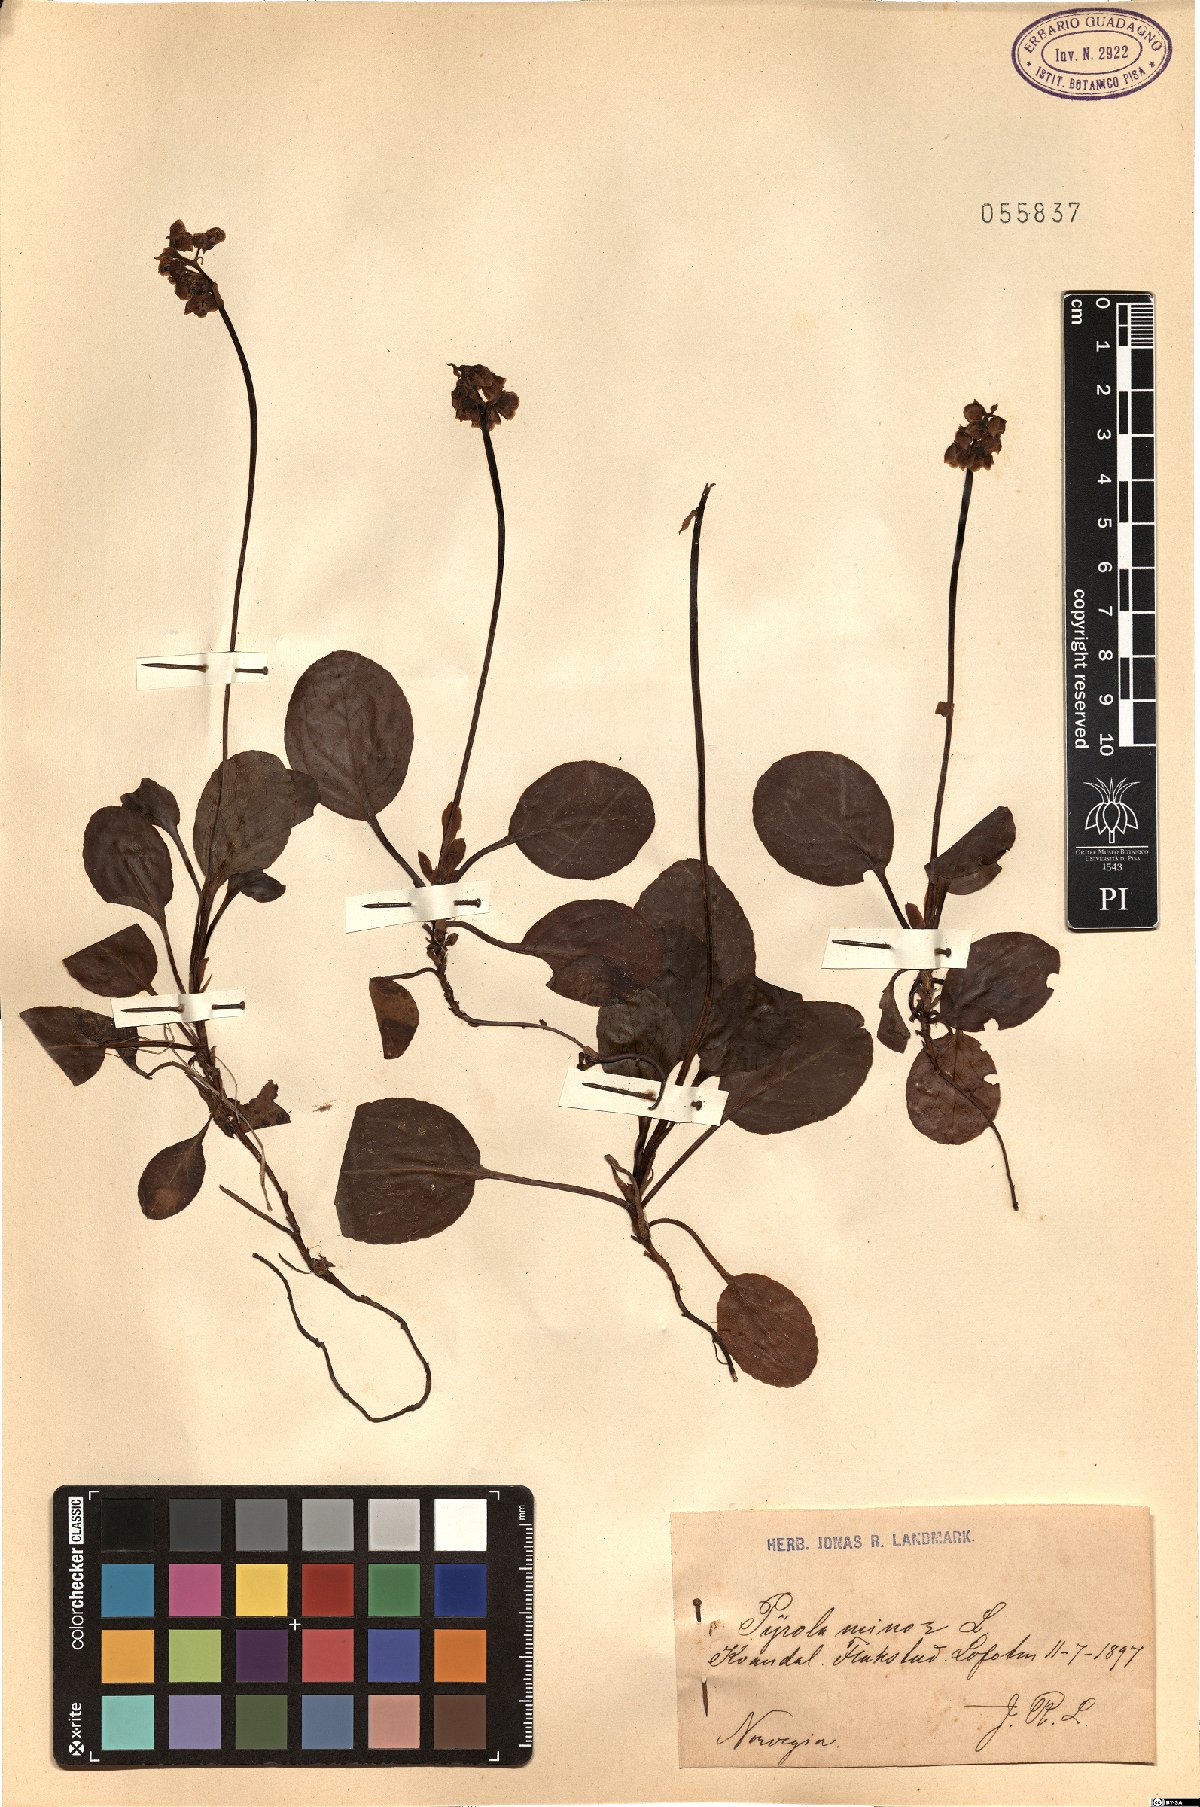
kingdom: Plantae
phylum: Tracheophyta
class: Magnoliopsida
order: Ericales
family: Ericaceae
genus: Pyrola
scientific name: Pyrola minor
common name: Common wintergreen
